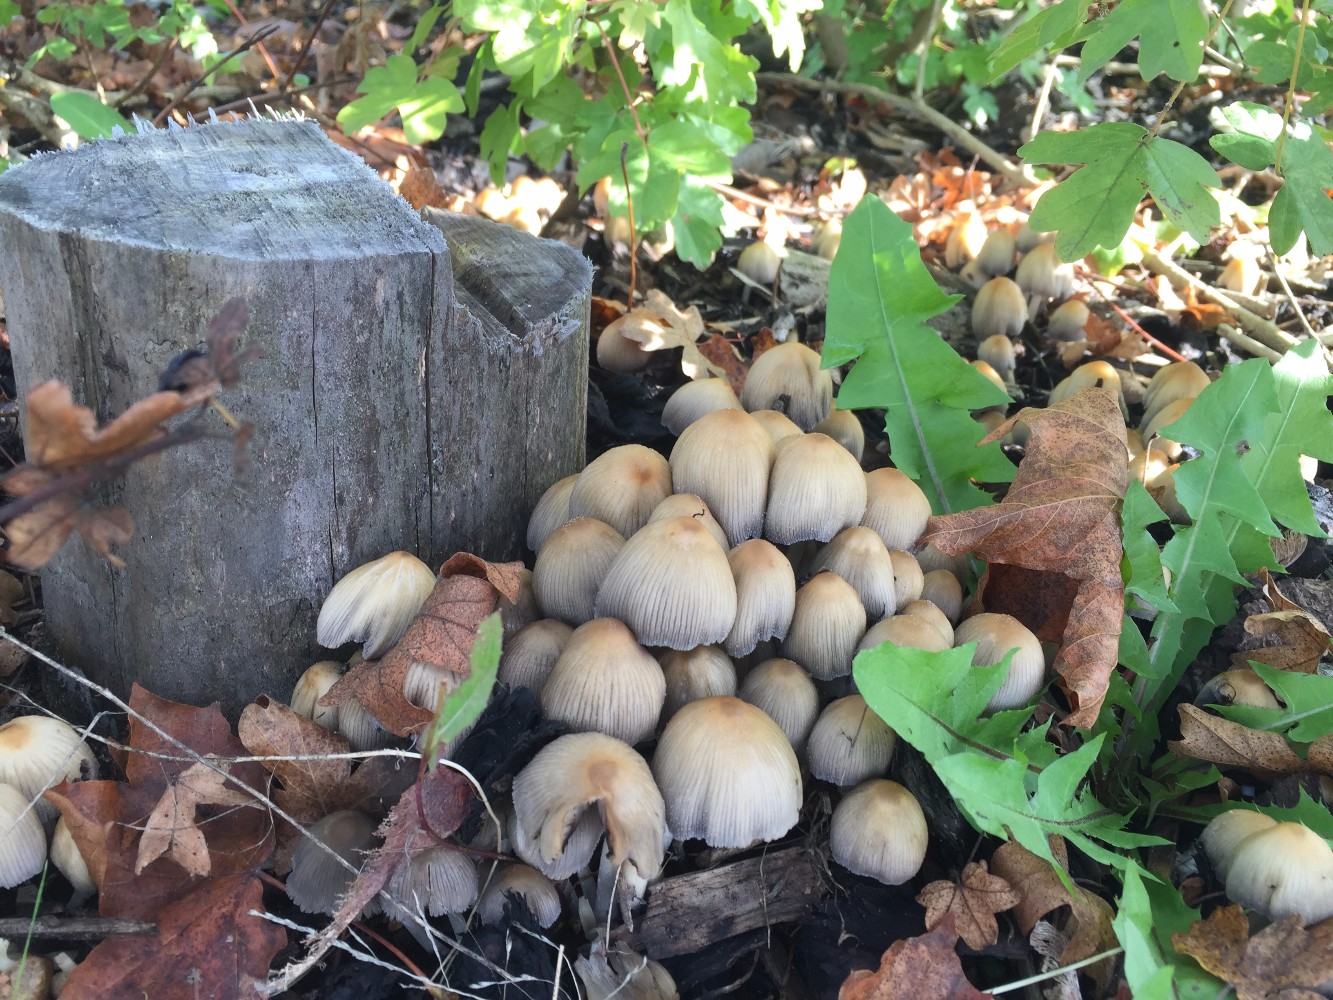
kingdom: Fungi
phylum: Basidiomycota
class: Agaricomycetes
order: Agaricales
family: Psathyrellaceae
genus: Coprinellus
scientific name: Coprinellus micaceus
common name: glimmer-blækhat
